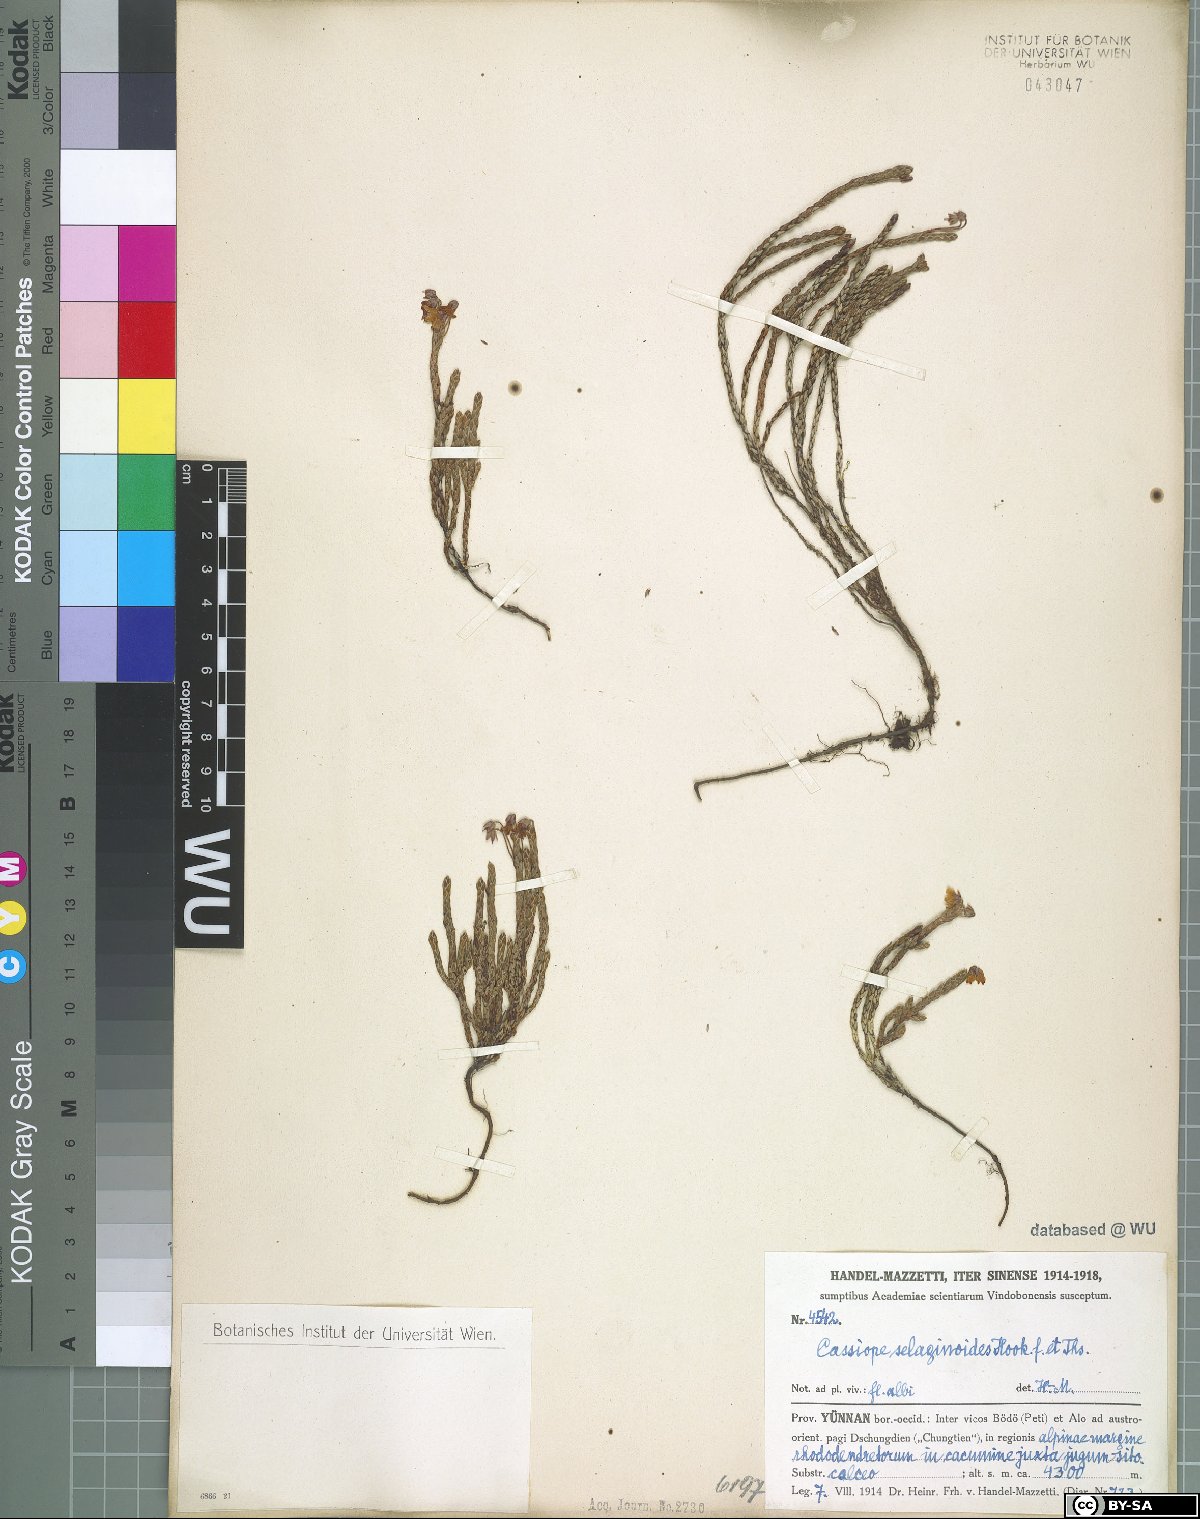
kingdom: Plantae
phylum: Tracheophyta
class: Magnoliopsida
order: Ericales
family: Ericaceae
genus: Cassiope
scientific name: Cassiope selaginoides
